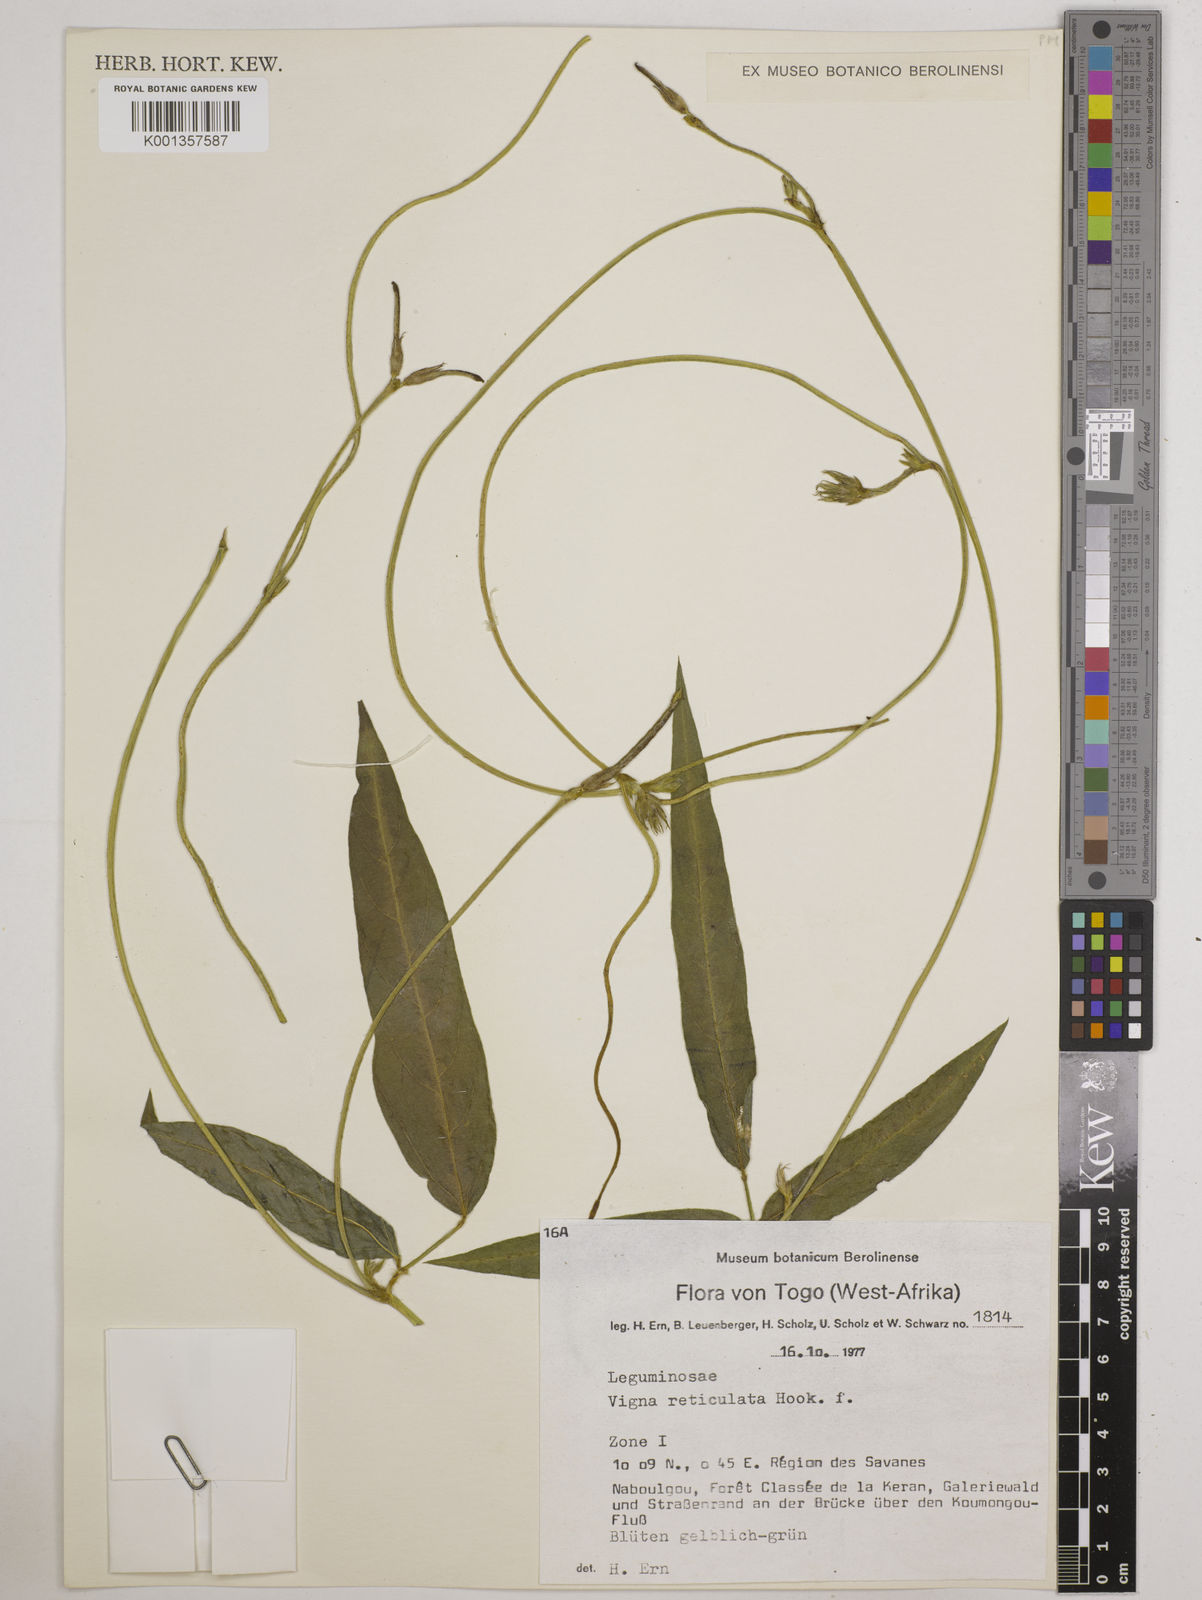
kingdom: Plantae
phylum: Tracheophyta
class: Magnoliopsida
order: Fabales
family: Fabaceae
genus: Vigna
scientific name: Vigna reticulata
